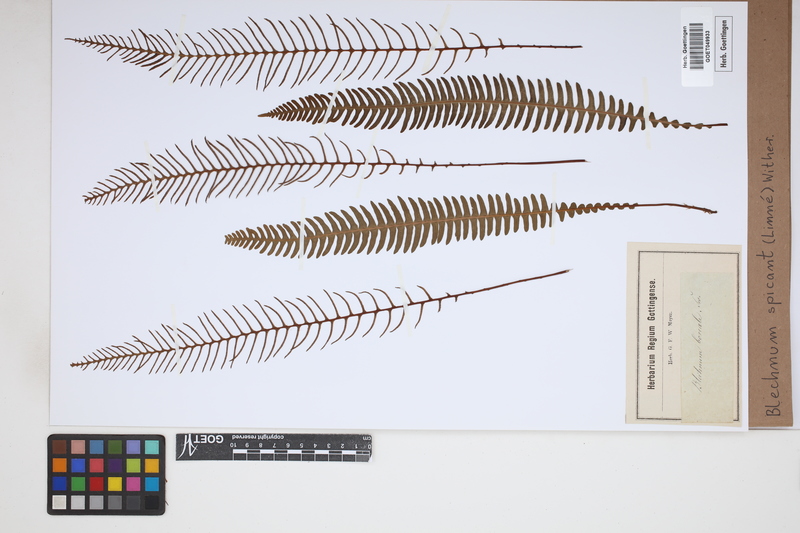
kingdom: Plantae
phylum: Tracheophyta
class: Polypodiopsida
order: Polypodiales
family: Blechnaceae
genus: Struthiopteris
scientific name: Struthiopteris spicant
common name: Deer fern
